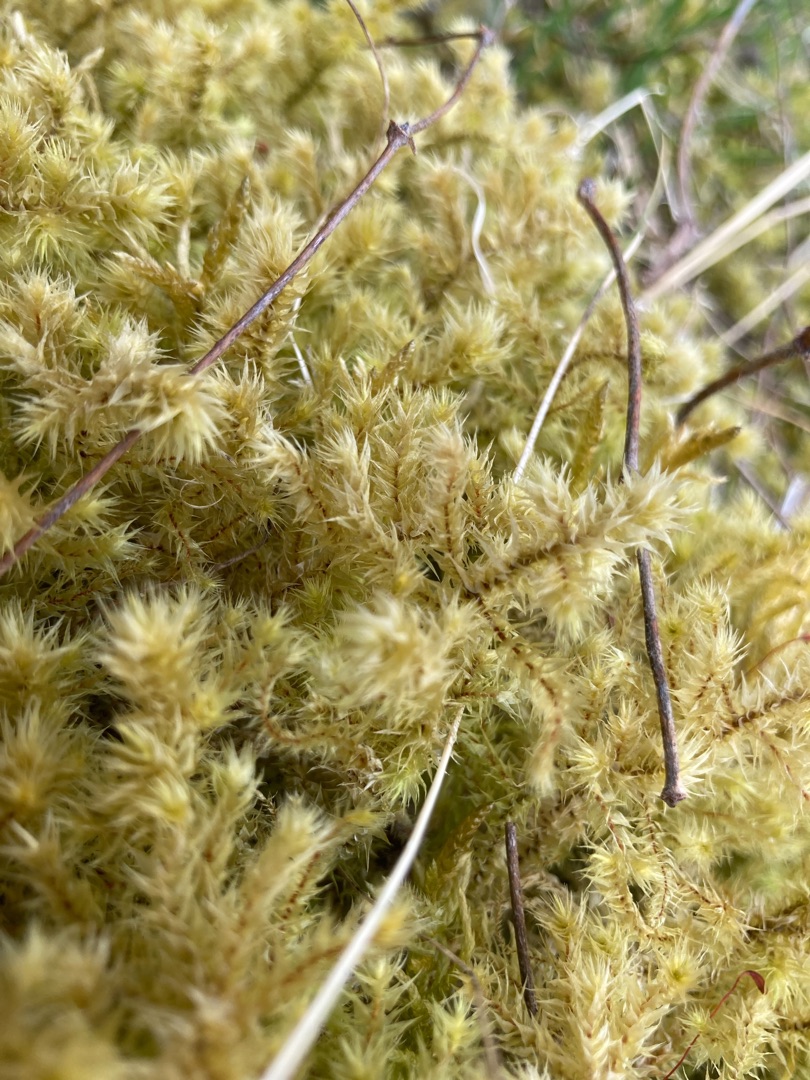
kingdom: Plantae
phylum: Bryophyta
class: Bryopsida
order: Hypnales
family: Hylocomiaceae
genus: Hylocomiadelphus
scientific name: Hylocomiadelphus triquetrus
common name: Stor kransemos
